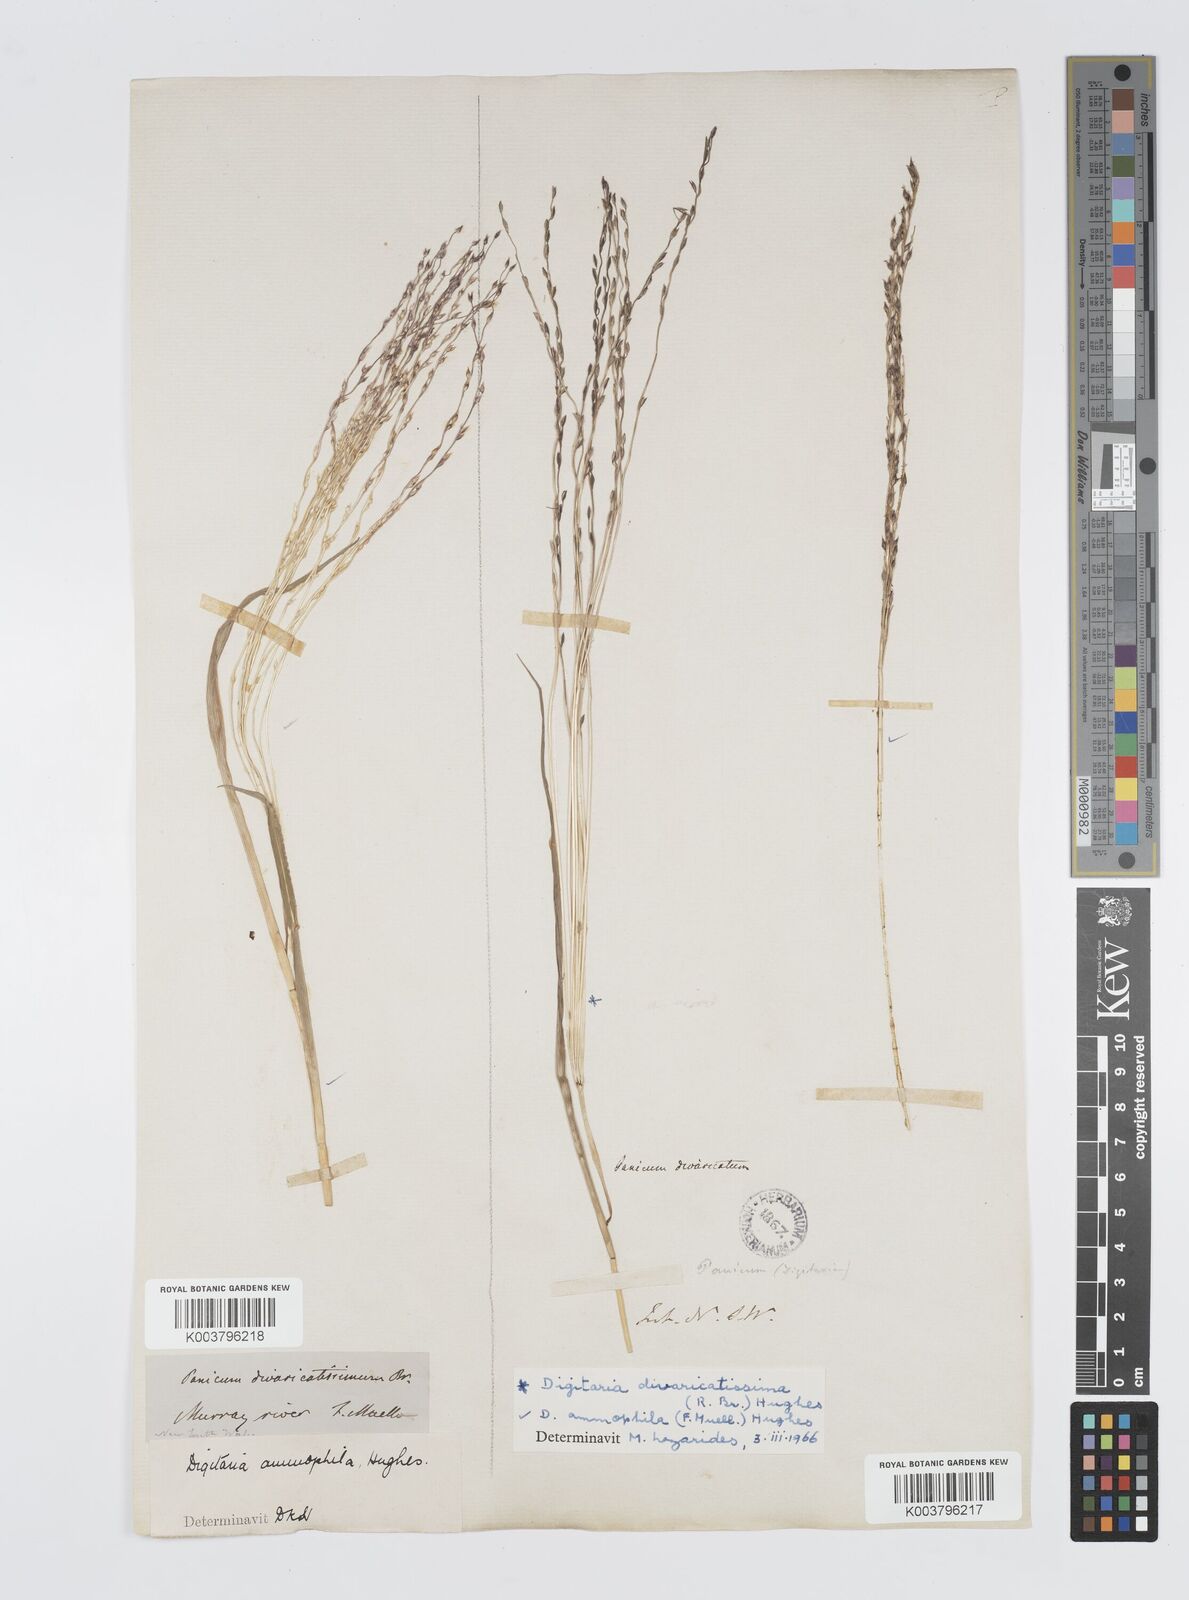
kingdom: Plantae
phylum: Tracheophyta
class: Liliopsida
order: Poales
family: Poaceae
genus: Digitaria
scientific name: Digitaria ammophila
